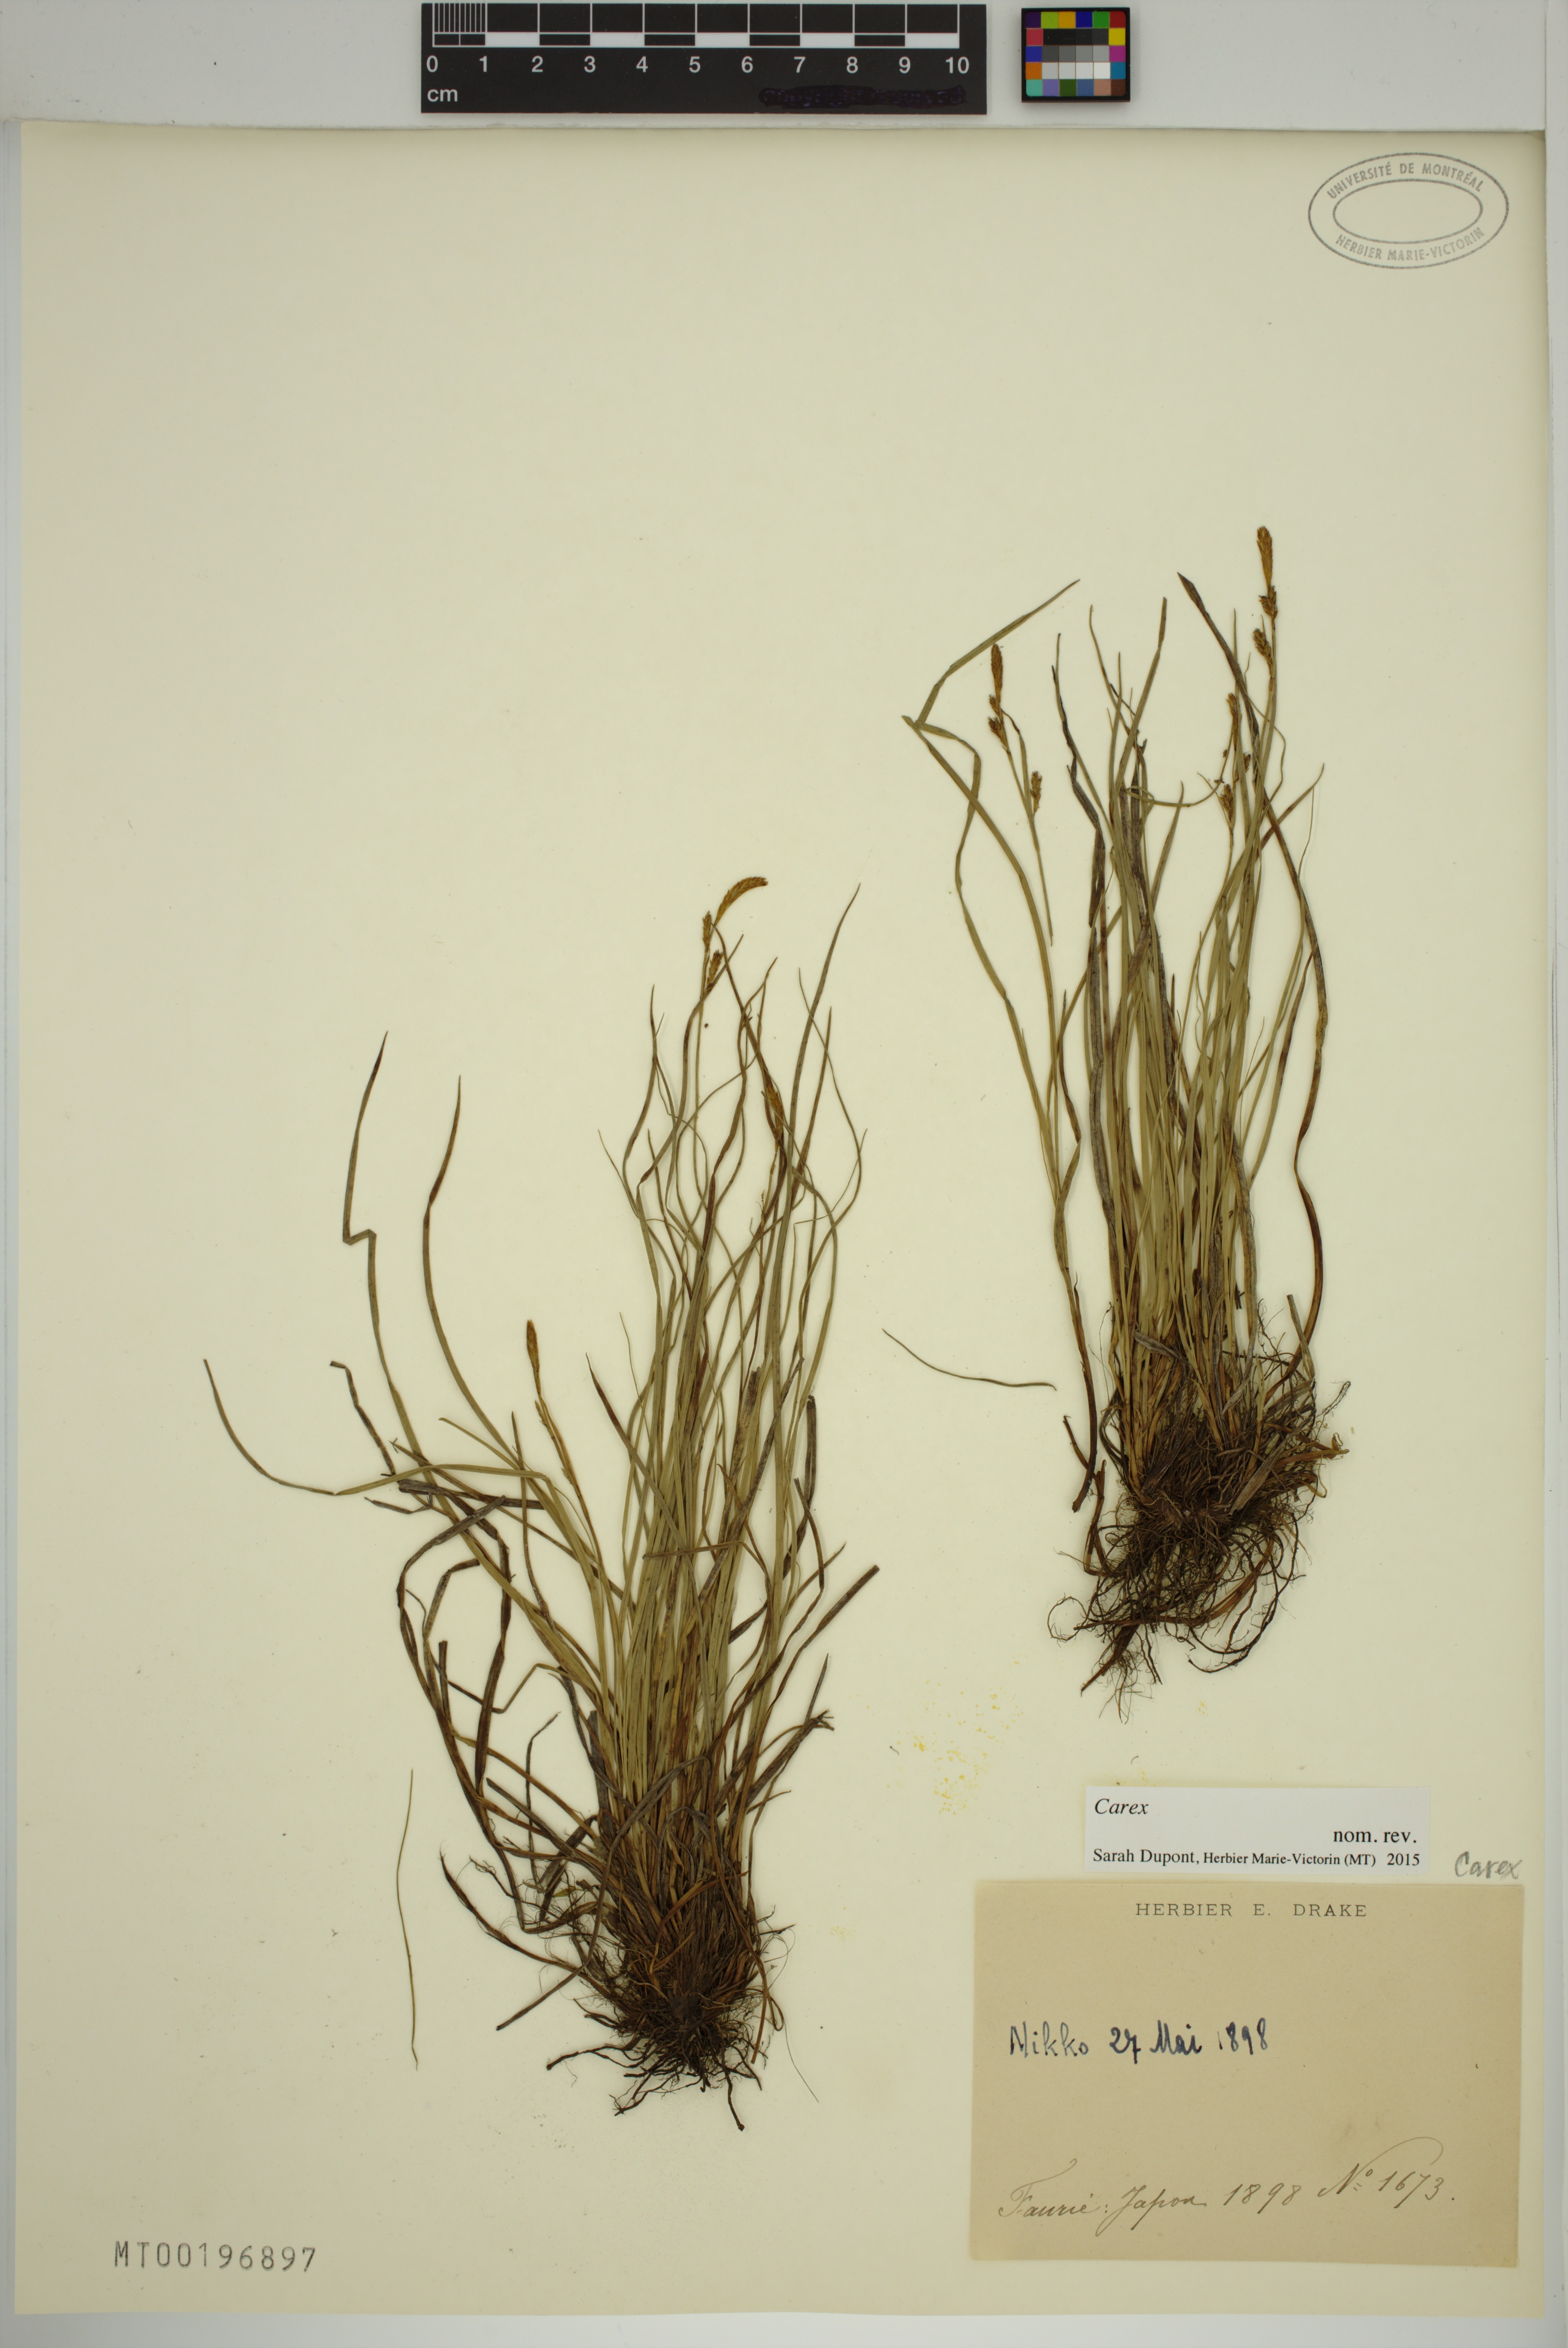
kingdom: Plantae
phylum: Tracheophyta
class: Liliopsida
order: Poales
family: Cyperaceae
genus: Carex
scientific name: Carex
